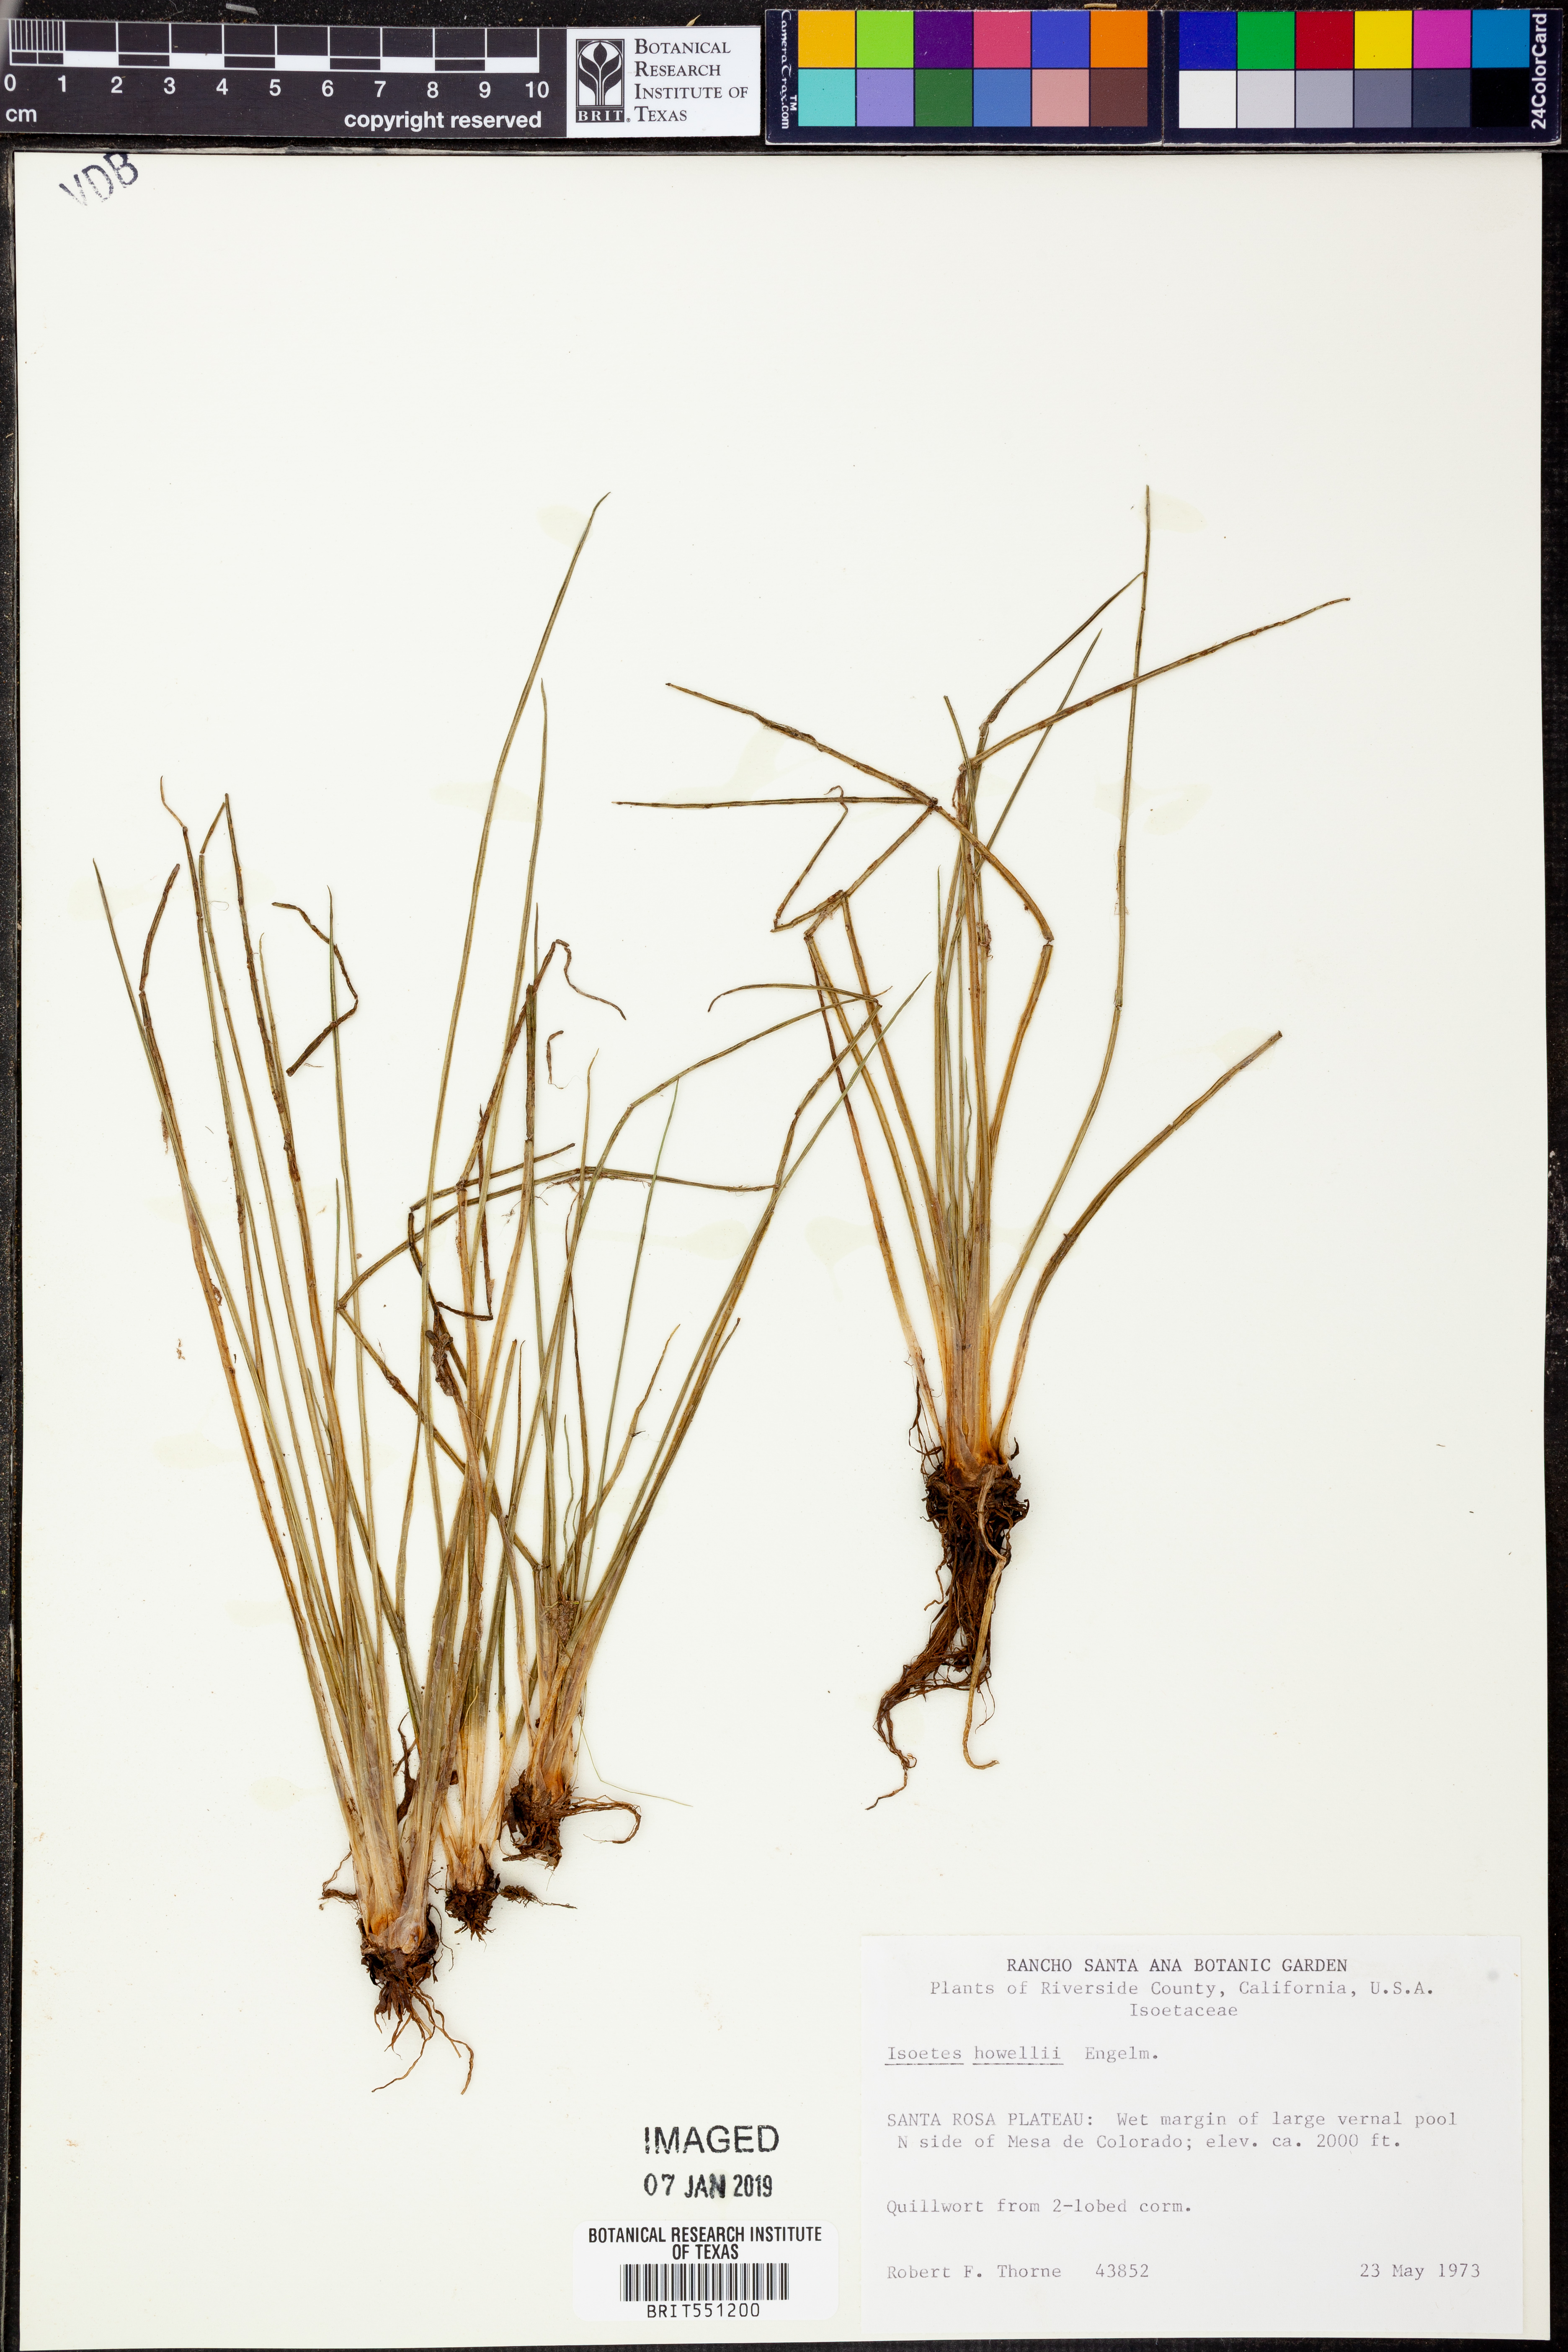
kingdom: Plantae
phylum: Tracheophyta
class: Lycopodiopsida
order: Isoetales
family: Isoetaceae
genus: Isoetes
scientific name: Isoetes howellii
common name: Howell's quillwort
